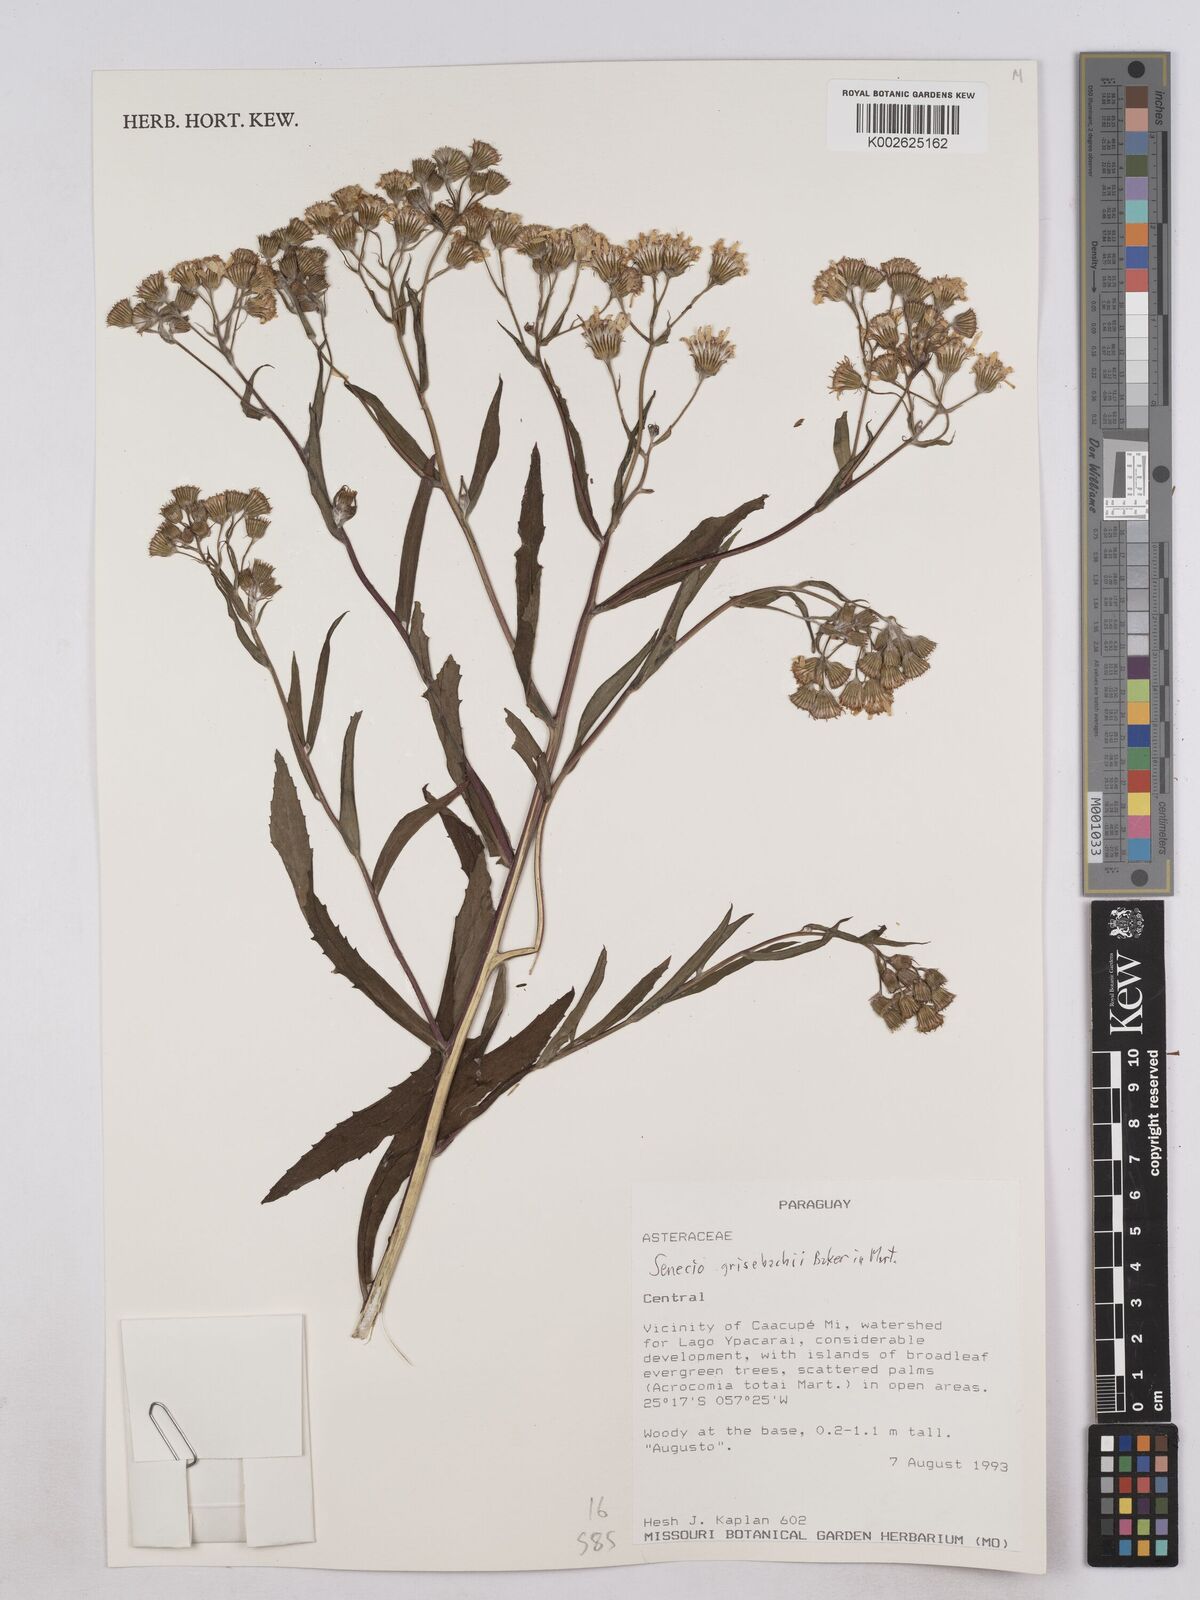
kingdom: Plantae
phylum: Tracheophyta
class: Magnoliopsida
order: Asterales
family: Asteraceae
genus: Senecio
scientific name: Senecio grisebachii
